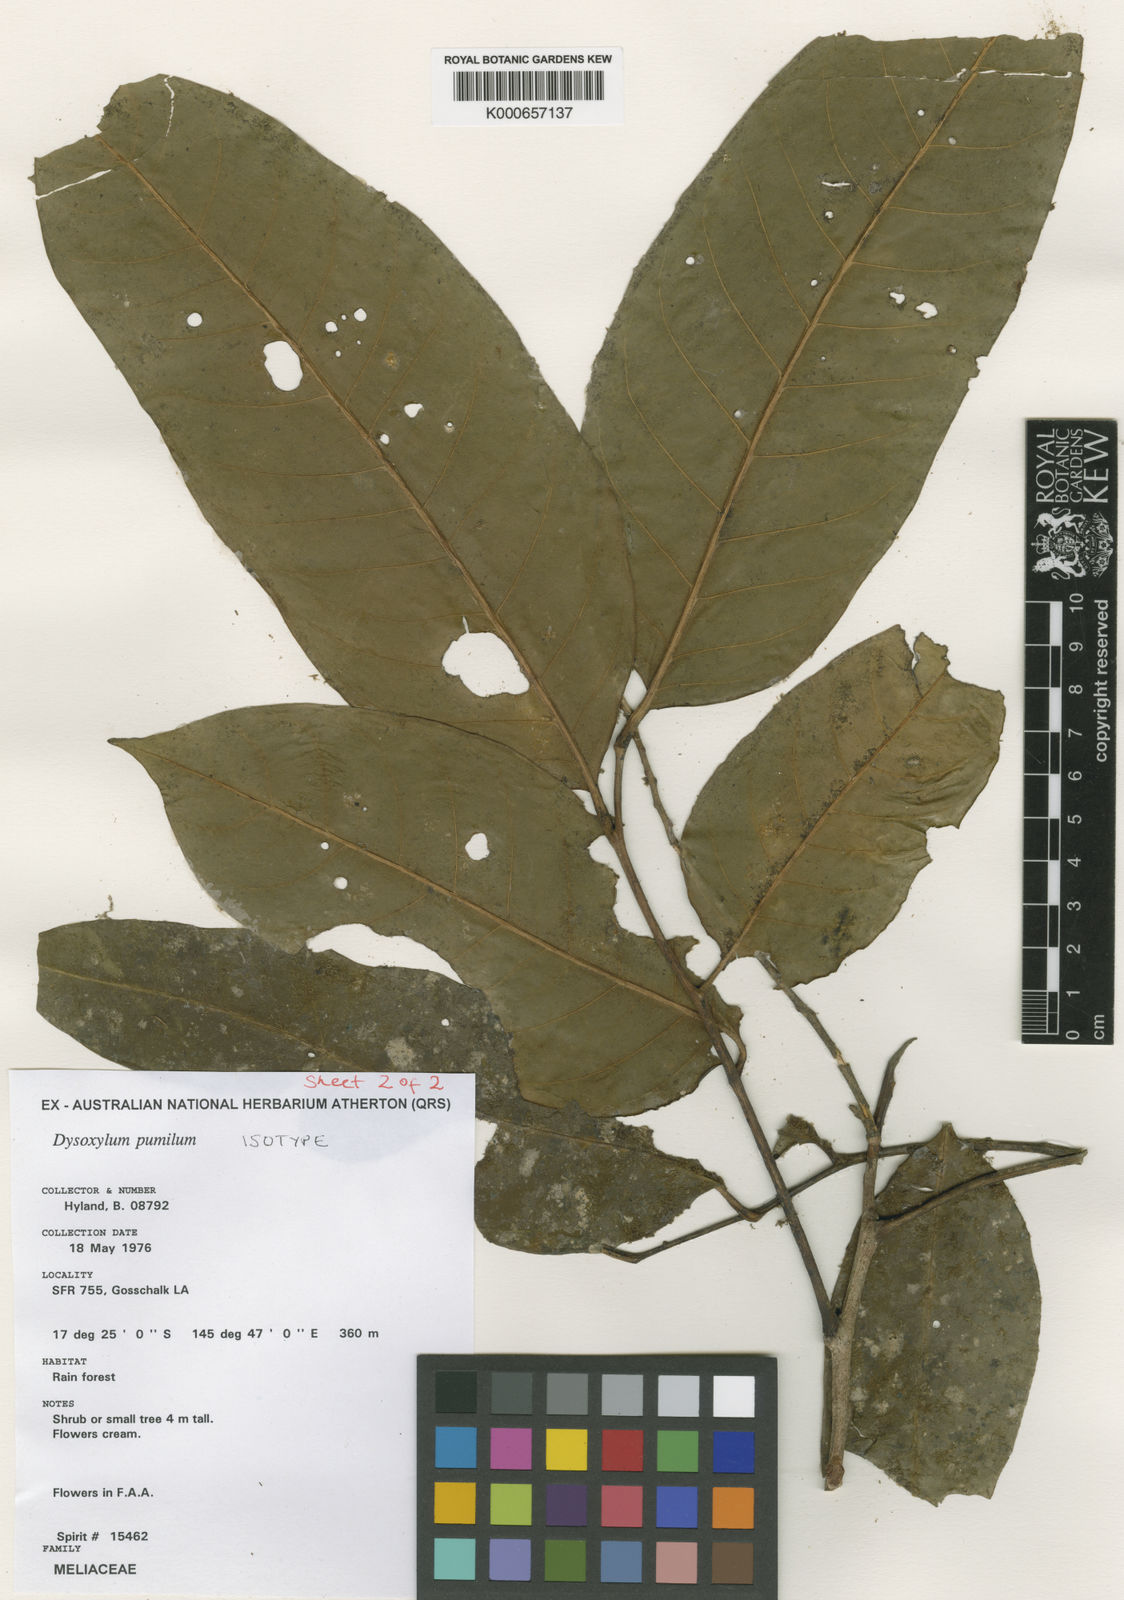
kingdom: Plantae
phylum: Tracheophyta
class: Magnoliopsida
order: Sapindales
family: Meliaceae
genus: Dysoxylum
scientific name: Dysoxylum pumilum
